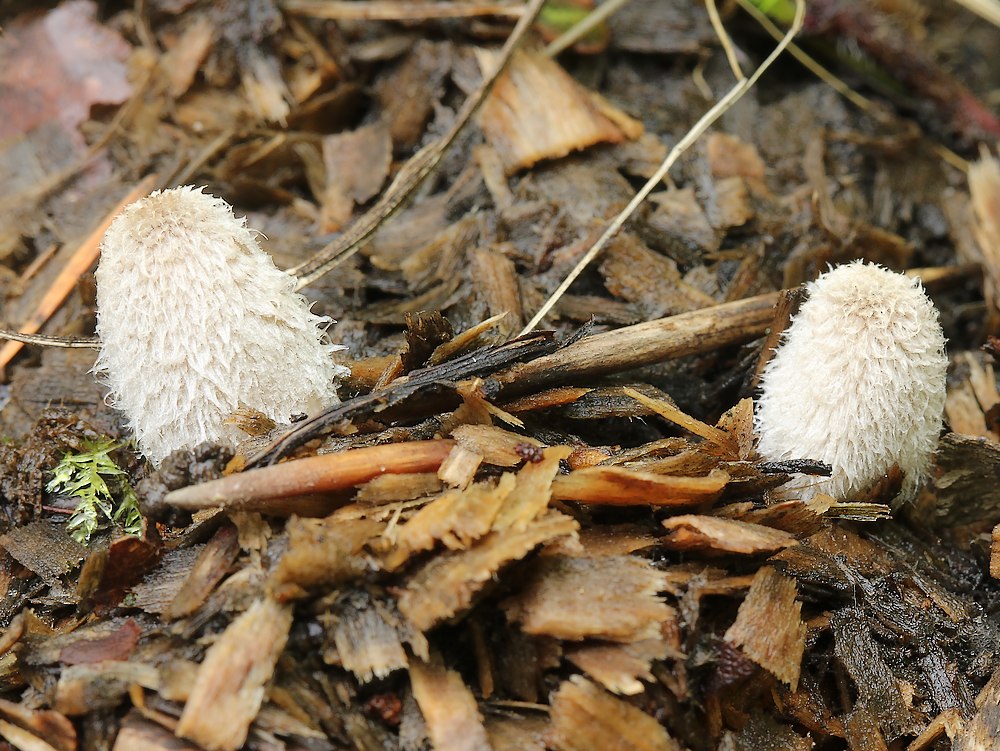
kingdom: Fungi
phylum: Basidiomycota
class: Agaricomycetes
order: Agaricales
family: Psathyrellaceae
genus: Coprinopsis
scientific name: Coprinopsis lagopus
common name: dunstokket blækhat
